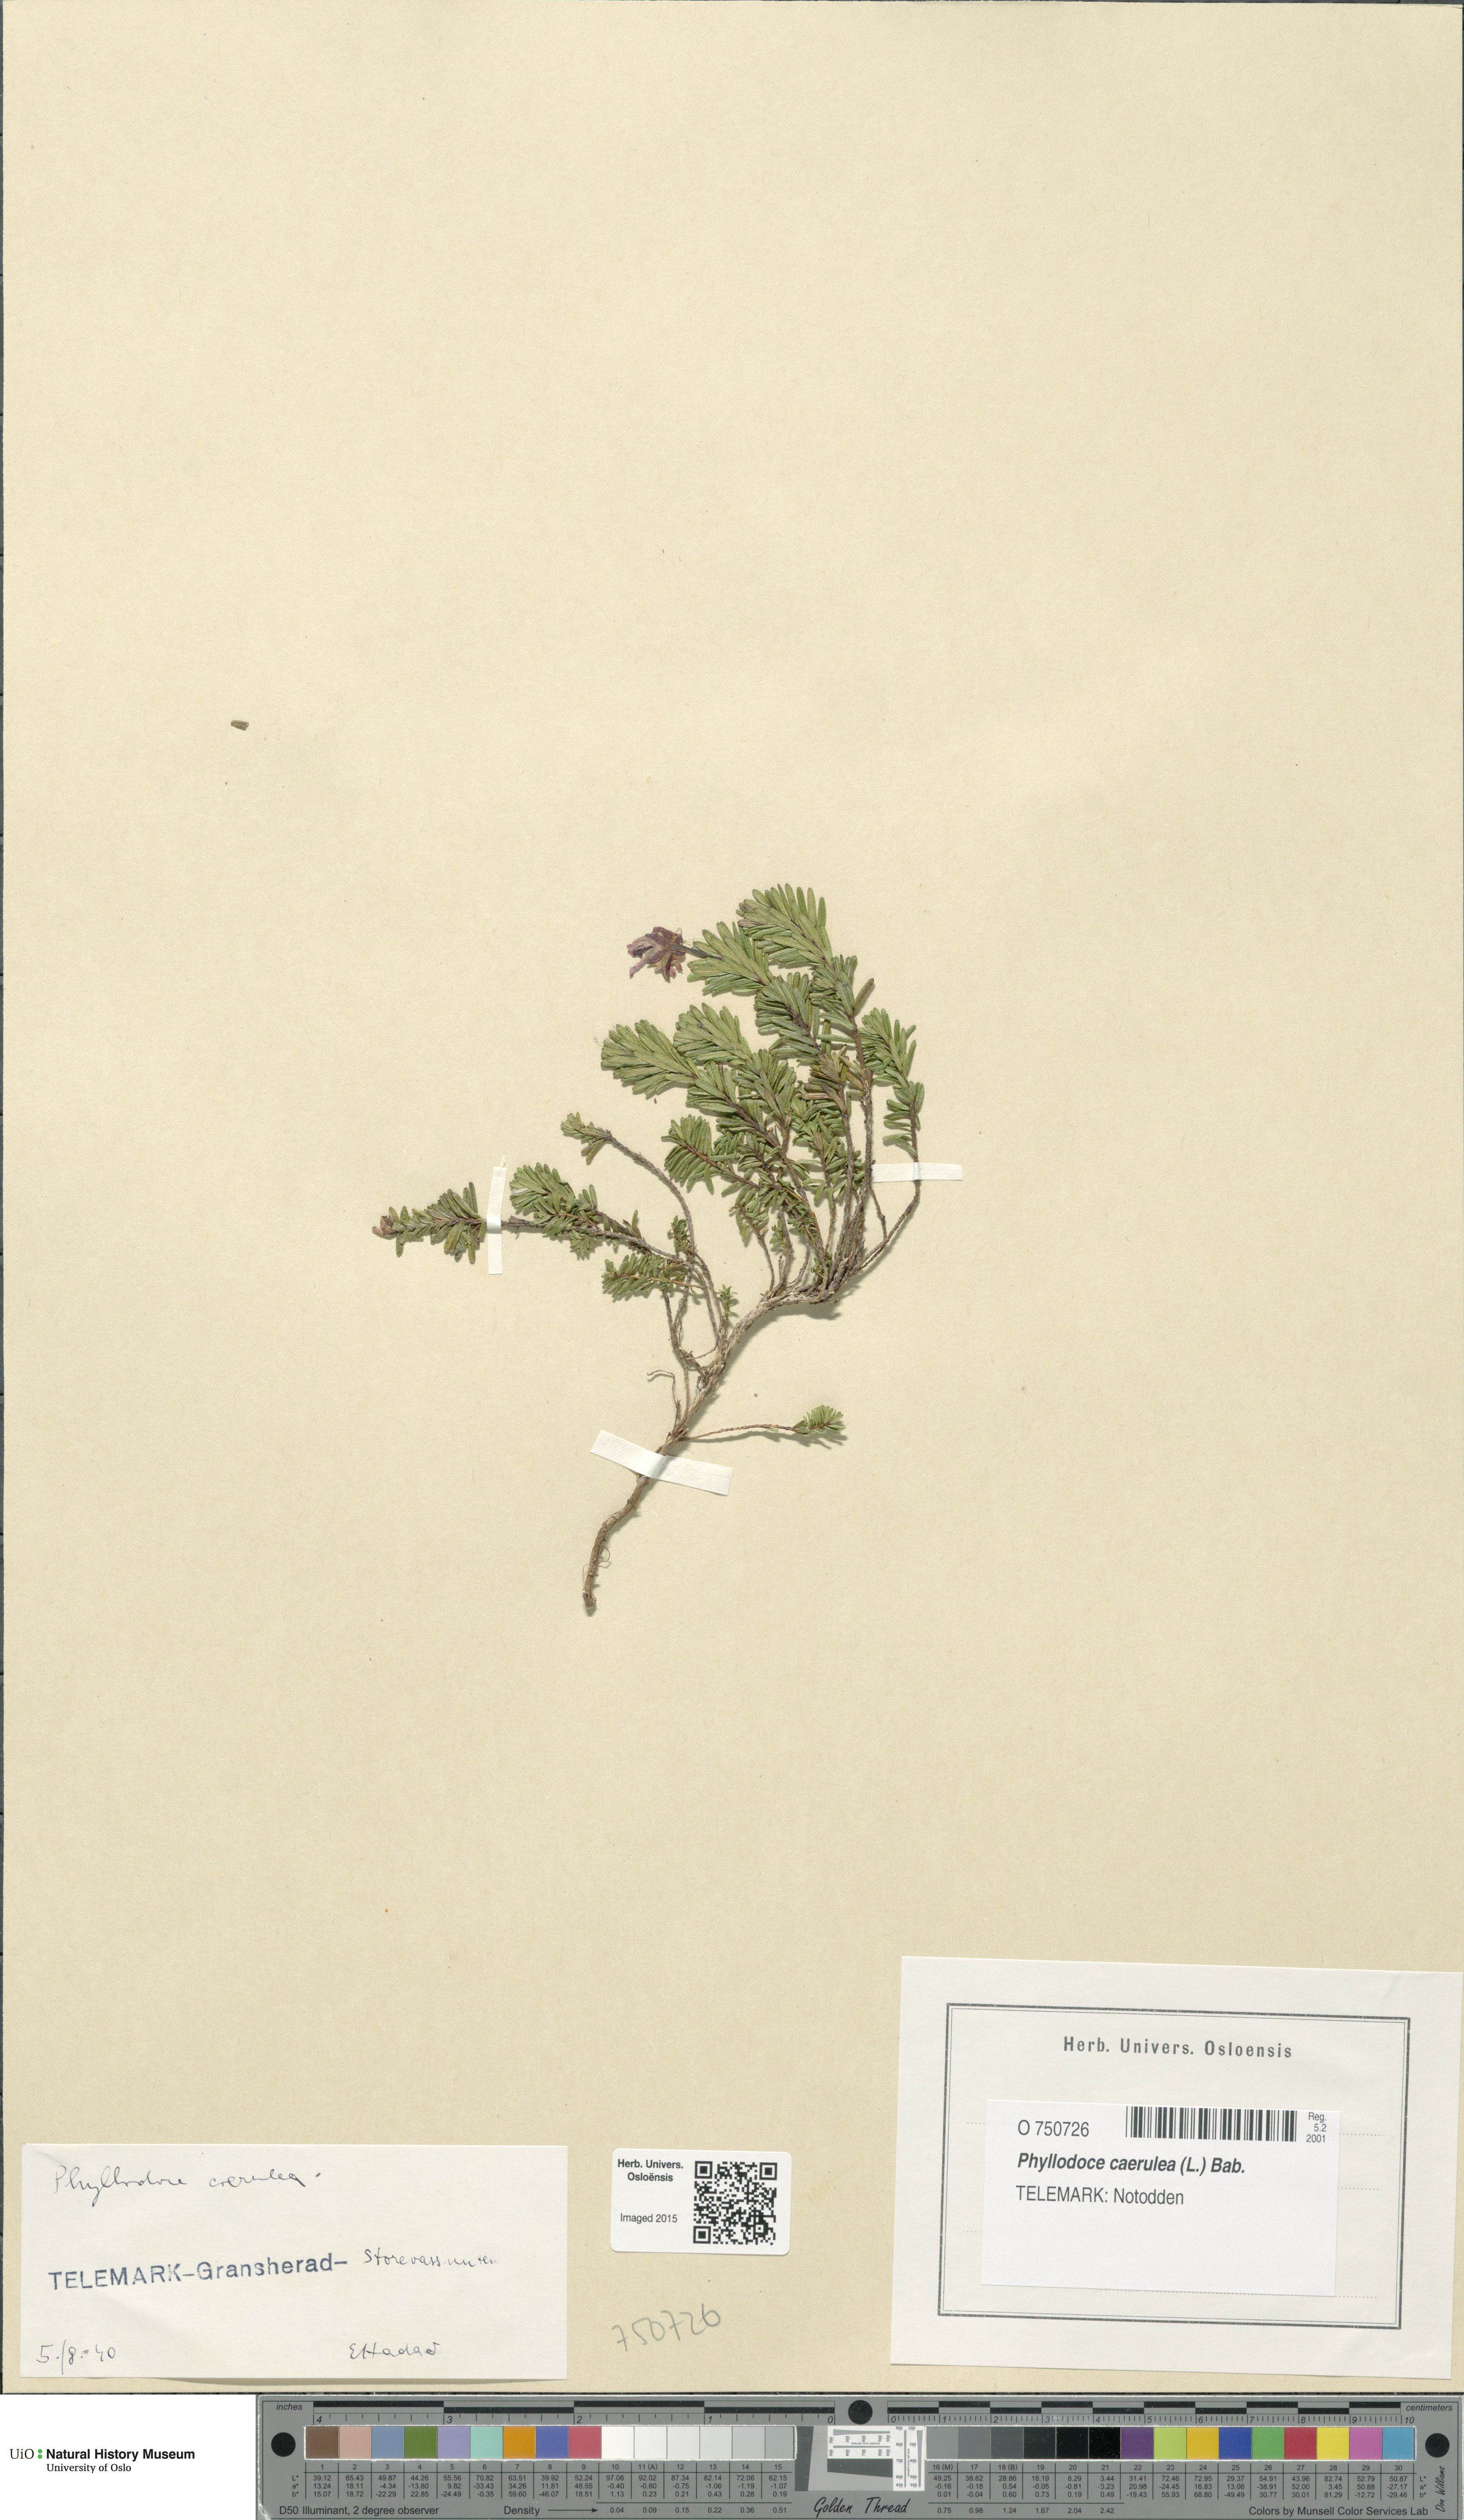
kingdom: Plantae
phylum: Tracheophyta
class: Magnoliopsida
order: Ericales
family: Ericaceae
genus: Phyllodoce
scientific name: Phyllodoce caerulea
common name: Blue heath
